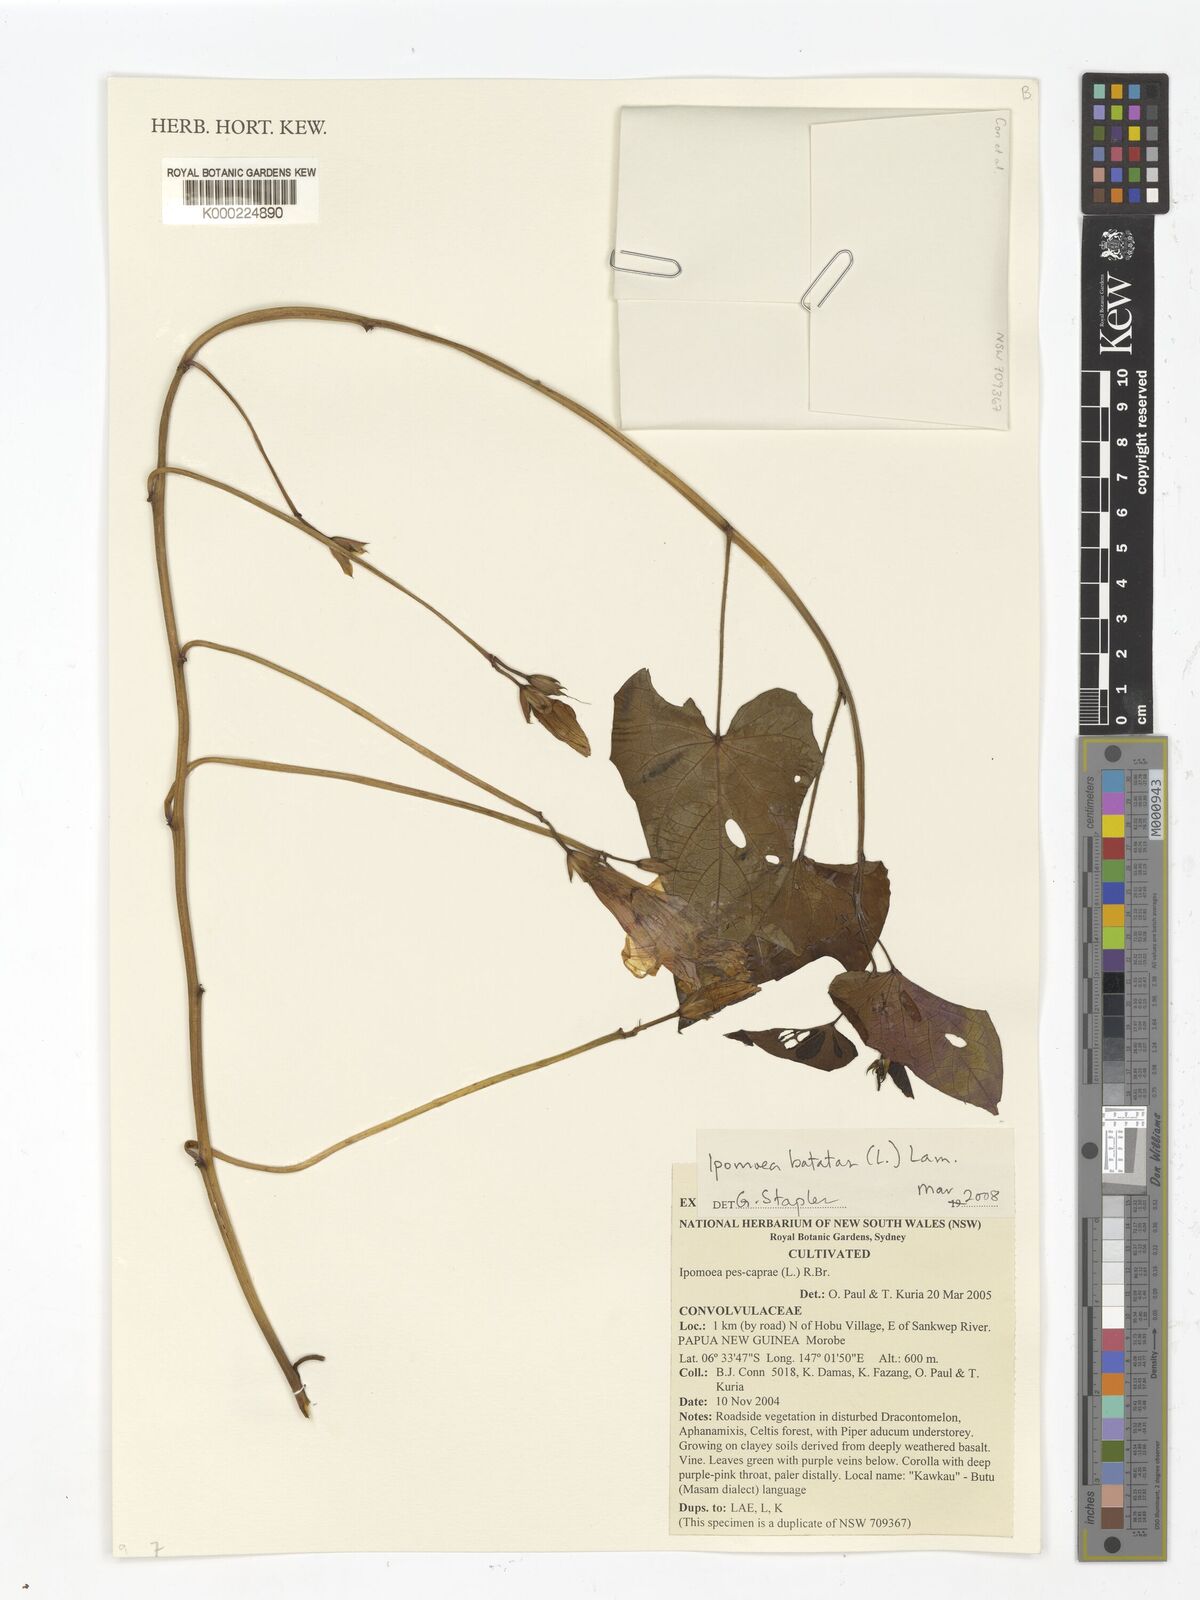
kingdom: Plantae
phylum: Tracheophyta
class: Magnoliopsida
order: Solanales
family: Convolvulaceae
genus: Ipomoea
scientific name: Ipomoea batatas
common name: Sweet-potato
